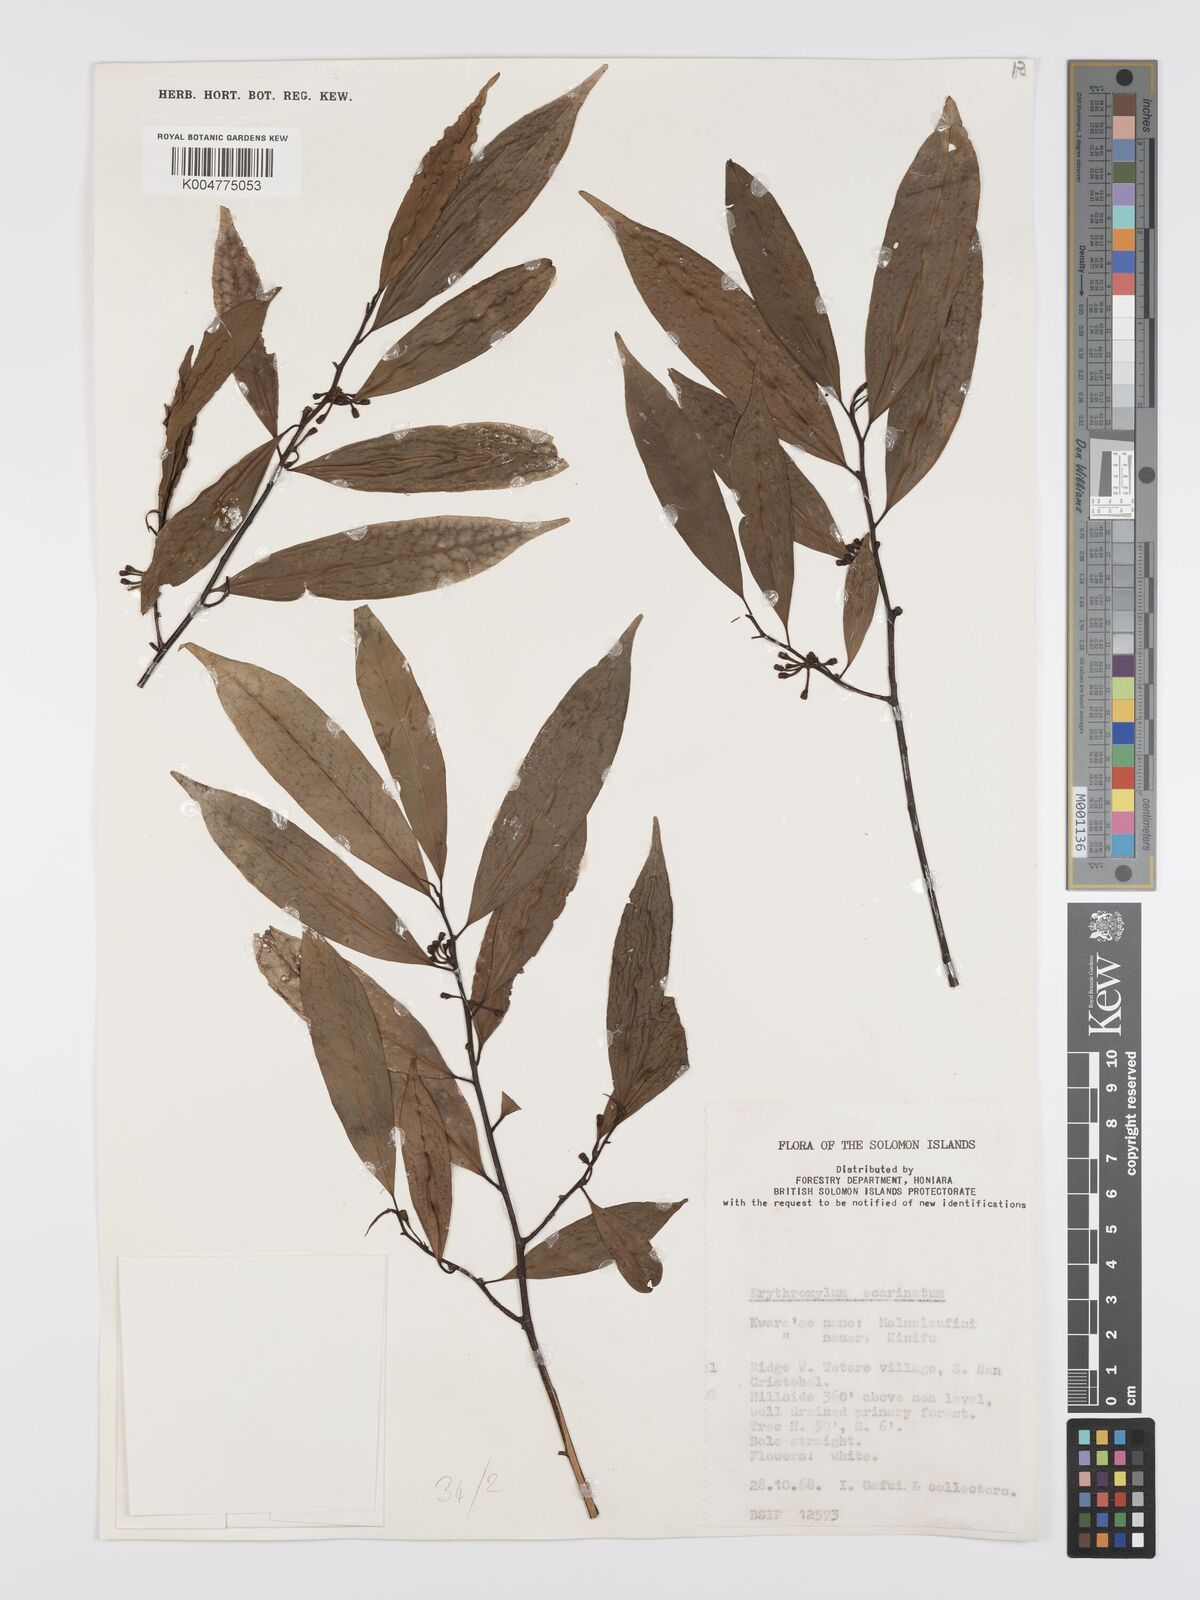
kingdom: Plantae
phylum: Tracheophyta
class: Magnoliopsida
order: Malpighiales
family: Erythroxylaceae
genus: Erythroxylum
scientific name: Erythroxylum ecarinatum
